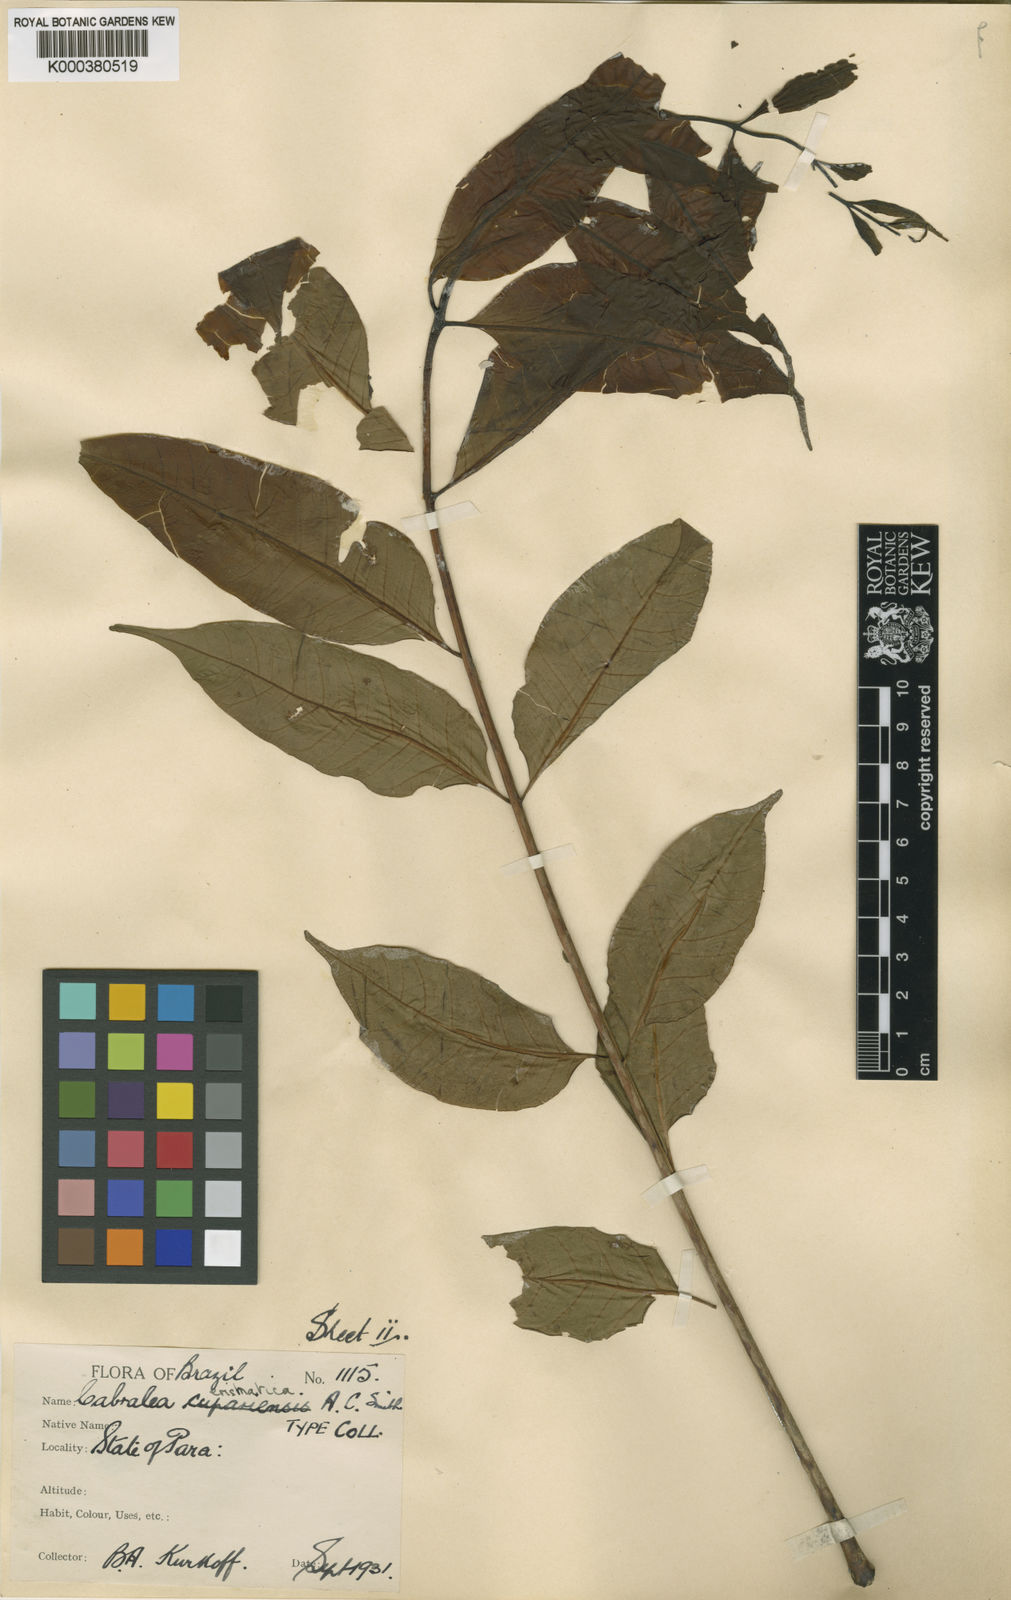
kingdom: Plantae
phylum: Tracheophyta
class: Magnoliopsida
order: Sapindales
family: Meliaceae
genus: Cabralea
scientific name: Cabralea canjerana
